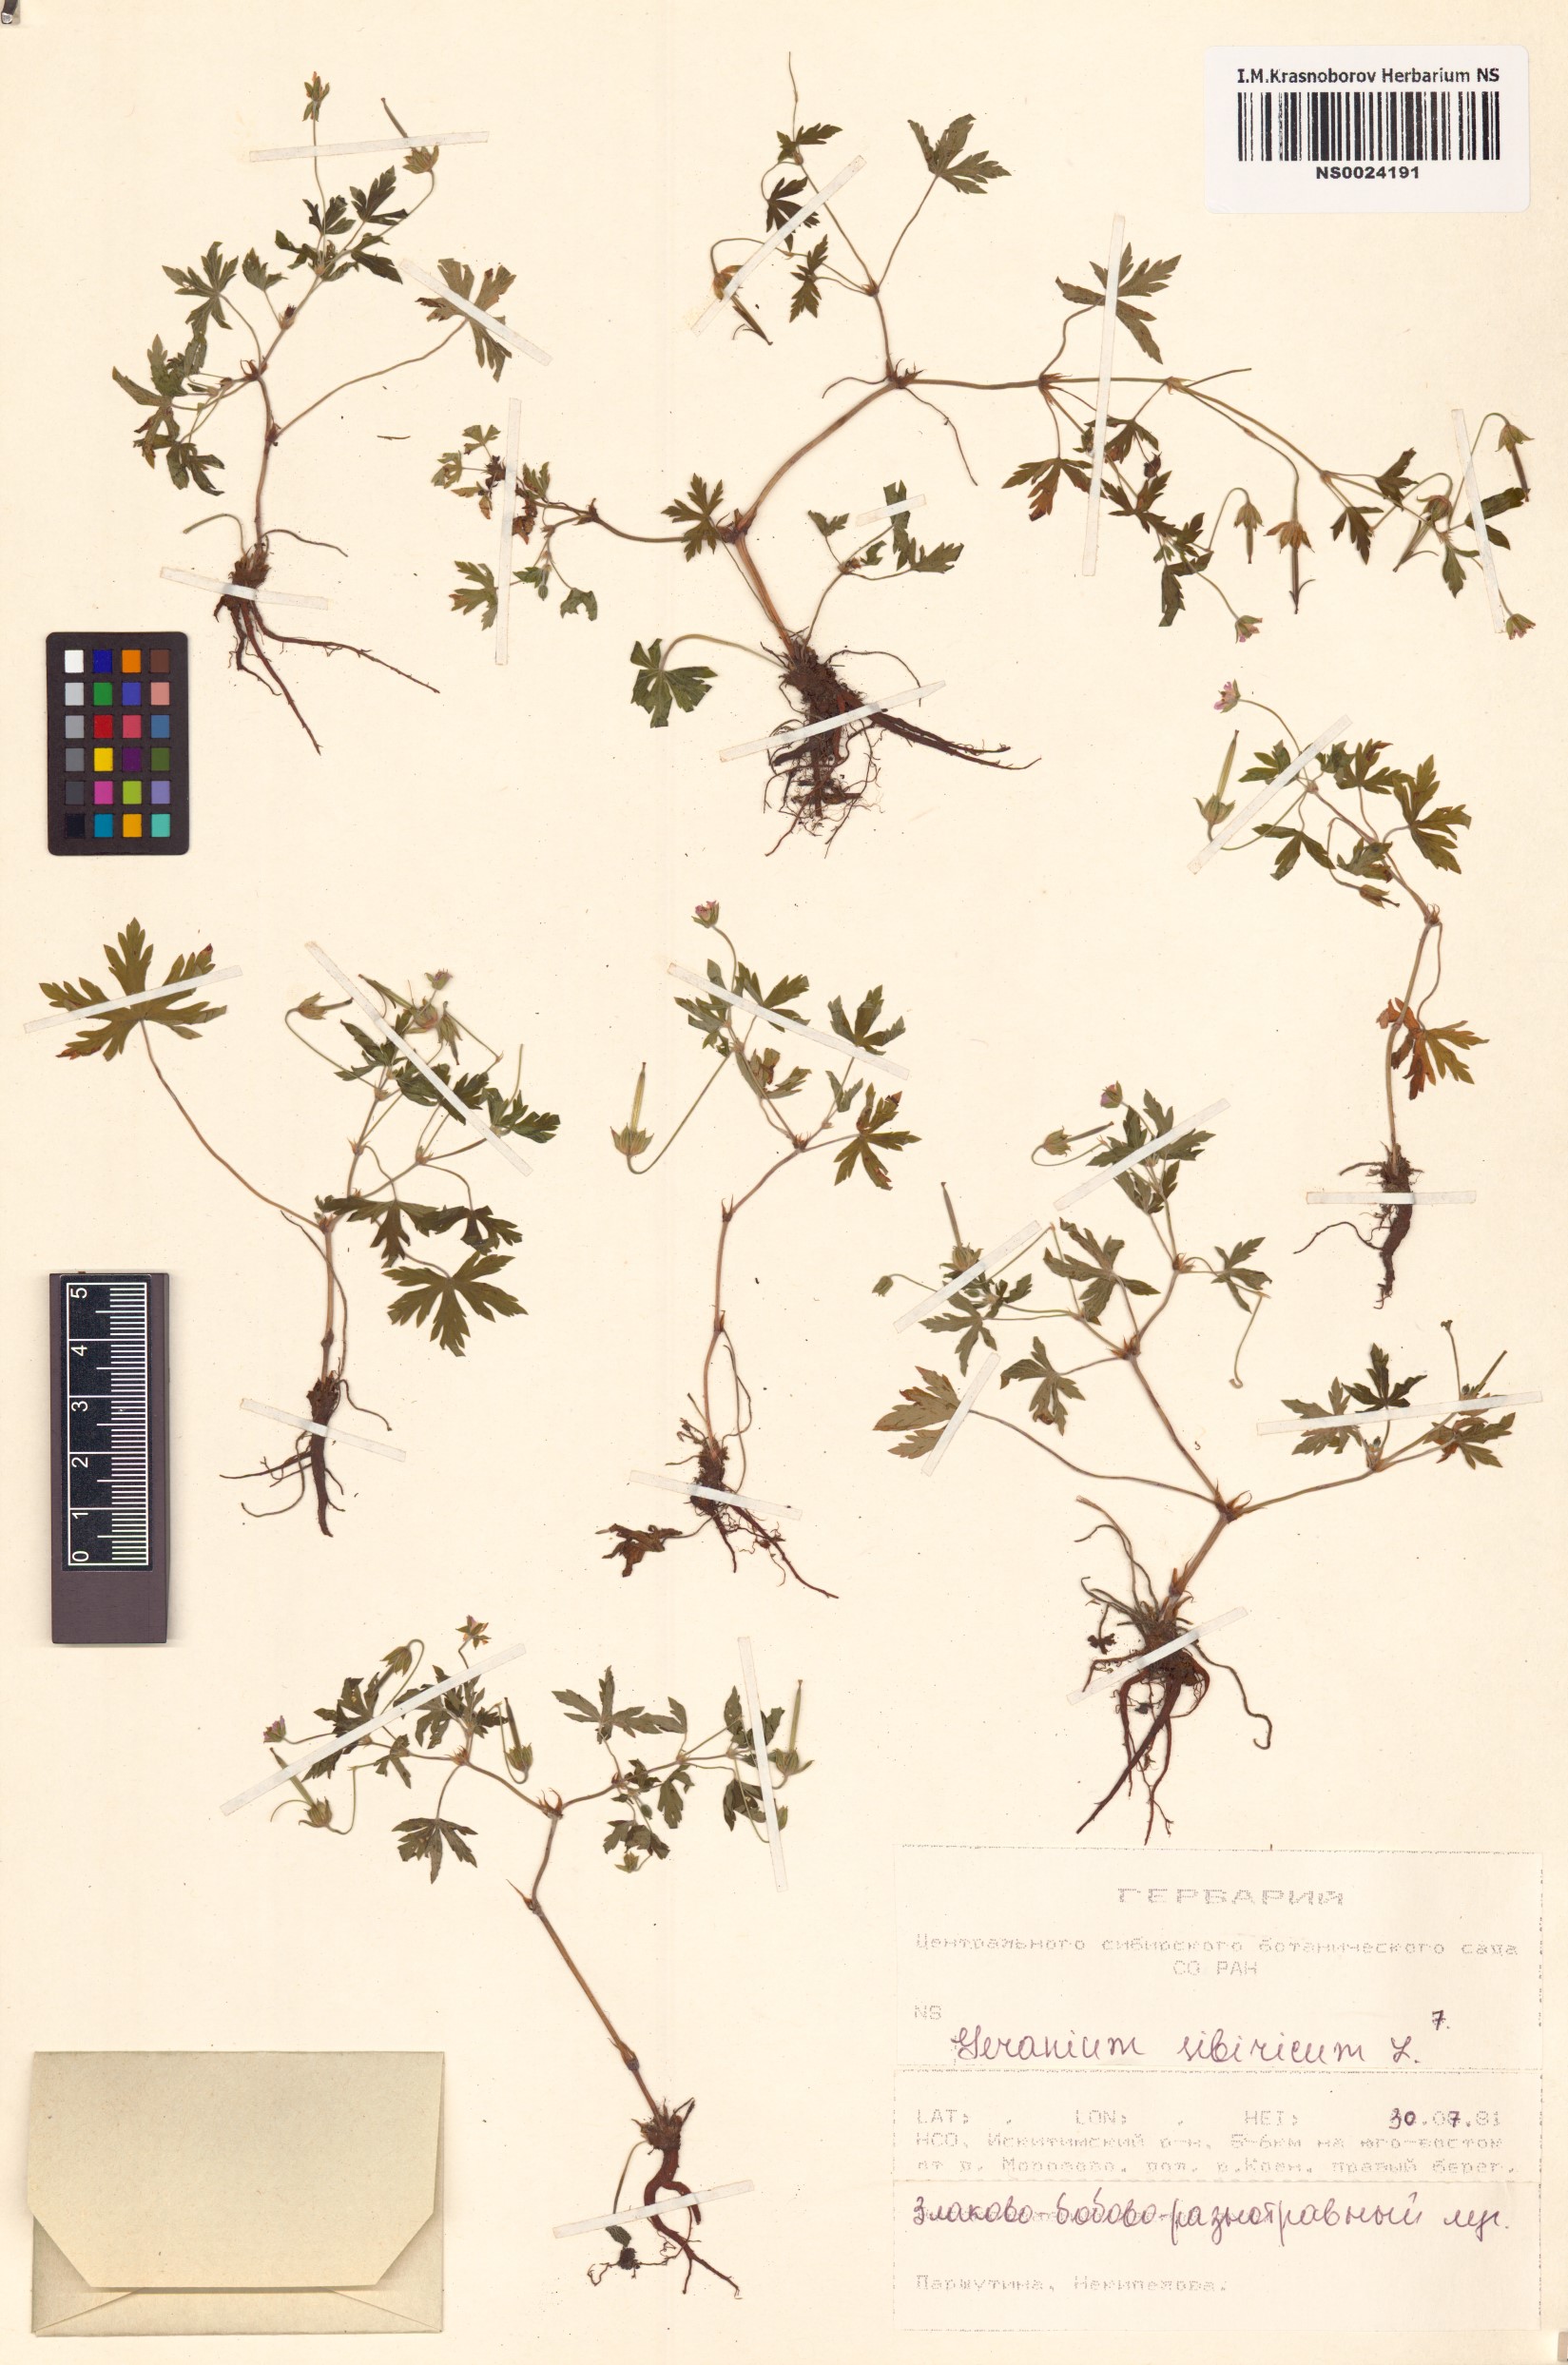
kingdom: Plantae
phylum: Tracheophyta
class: Magnoliopsida
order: Geraniales
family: Geraniaceae
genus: Geranium
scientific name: Geranium sibiricum
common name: Siberian crane's-bill
